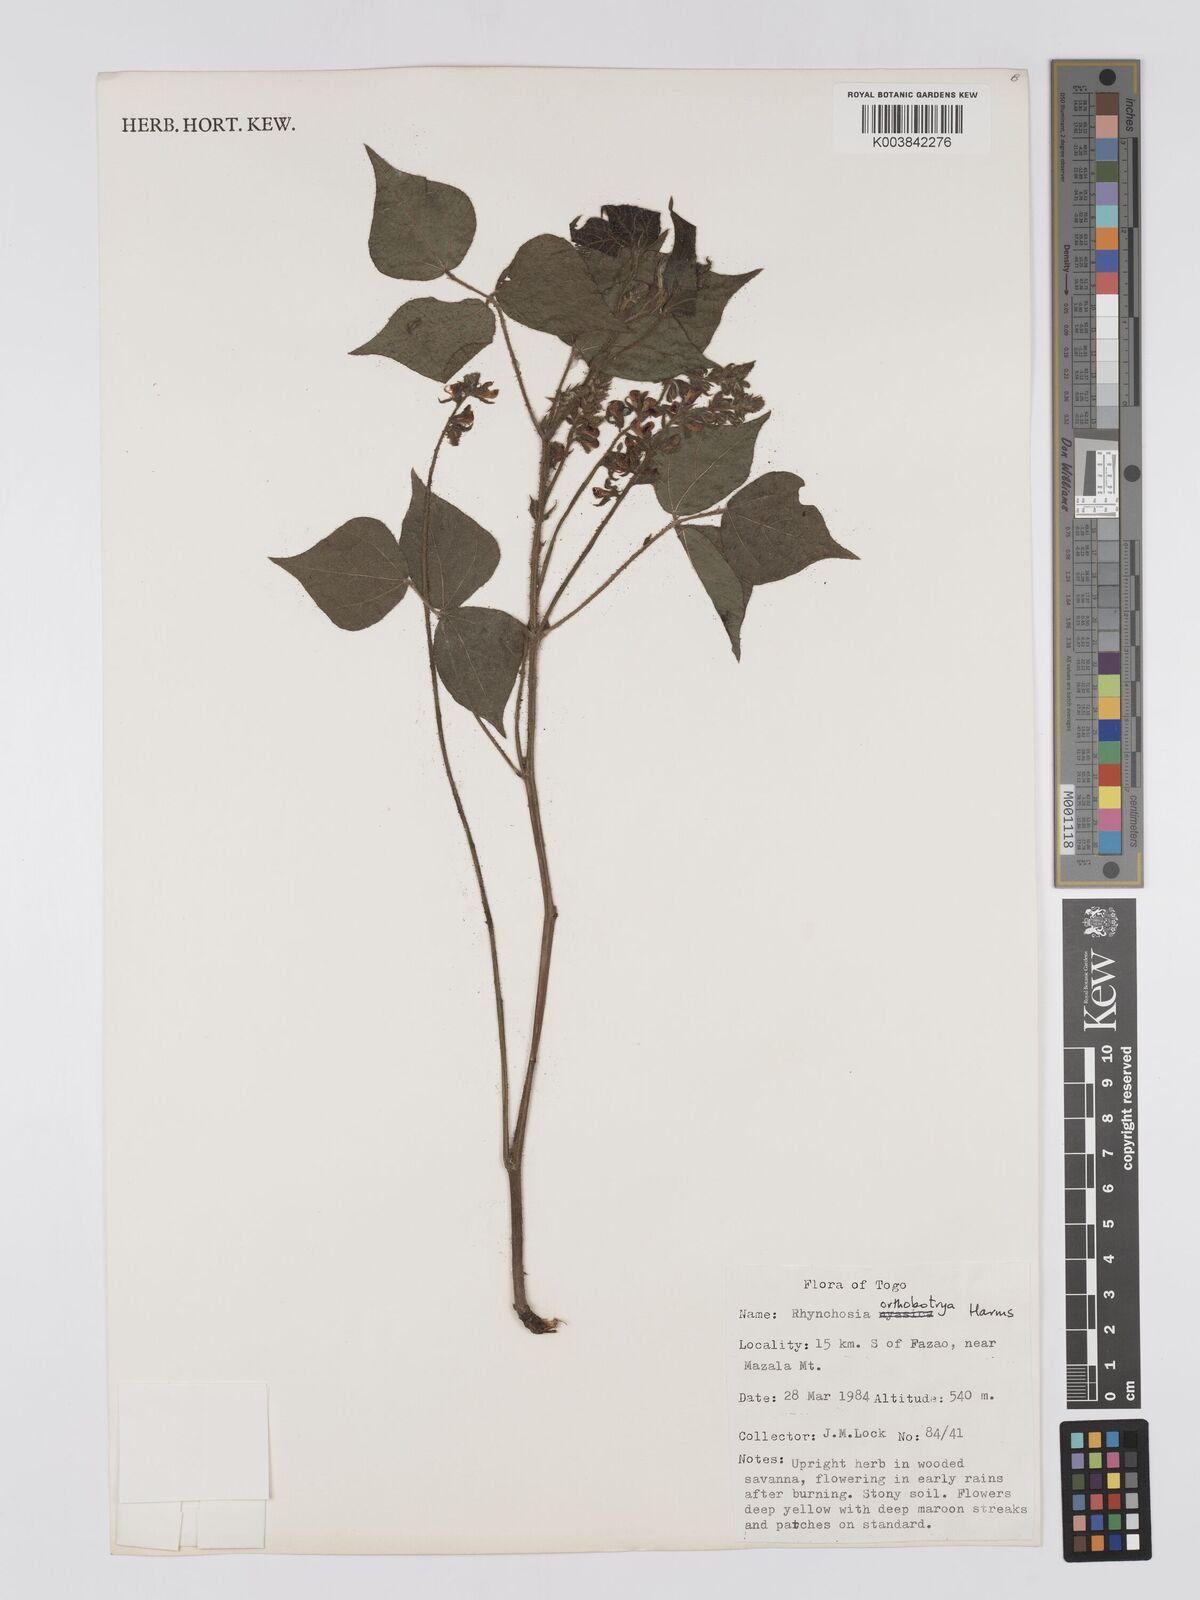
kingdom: Plantae
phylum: Tracheophyta
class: Magnoliopsida
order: Fabales
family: Fabaceae
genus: Rhynchosia
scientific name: Rhynchosia orthobotrya
